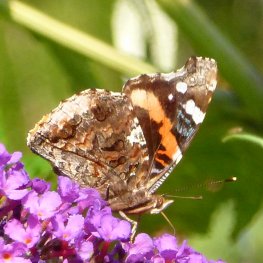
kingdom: Animalia
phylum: Arthropoda
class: Insecta
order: Lepidoptera
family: Nymphalidae
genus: Vanessa
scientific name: Vanessa atalanta
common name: Red Admiral
